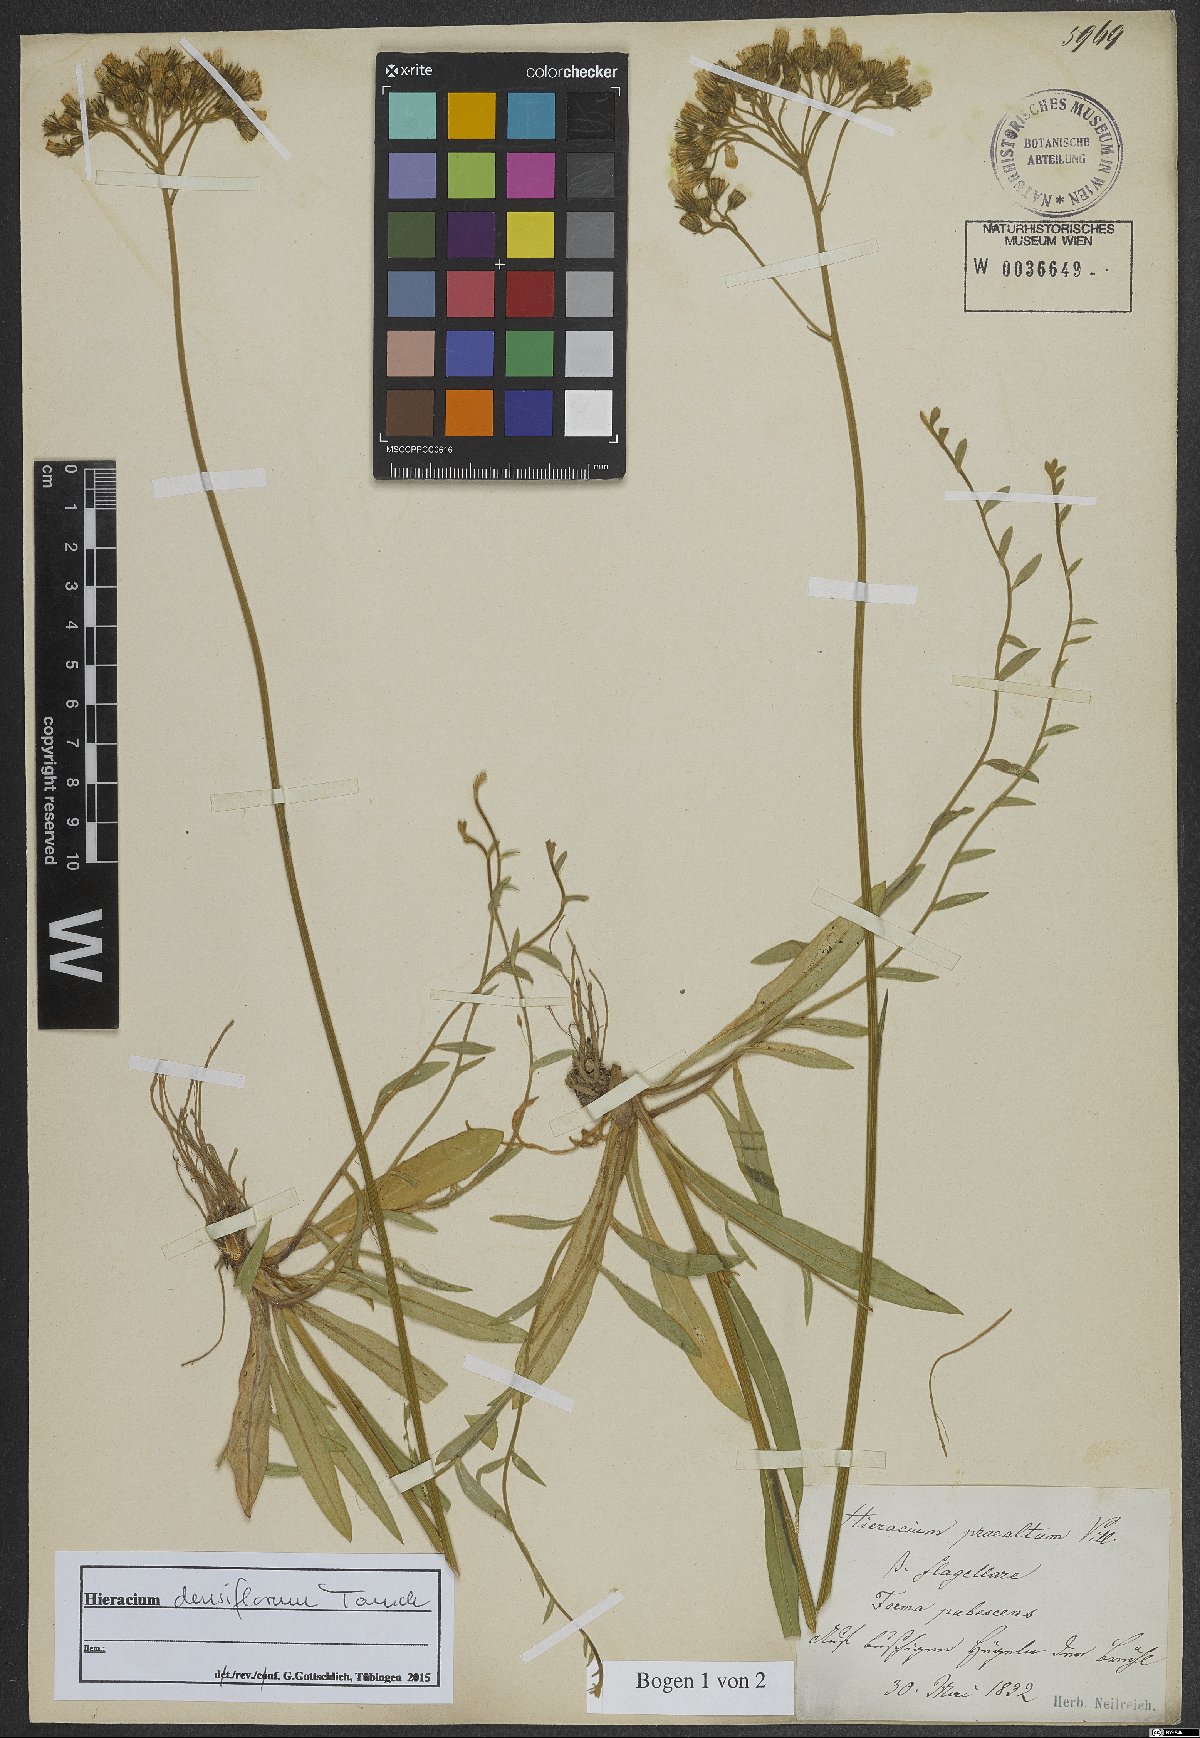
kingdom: Plantae
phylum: Tracheophyta
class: Magnoliopsida
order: Asterales
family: Asteraceae
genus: Pilosella
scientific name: Pilosella densiflora
